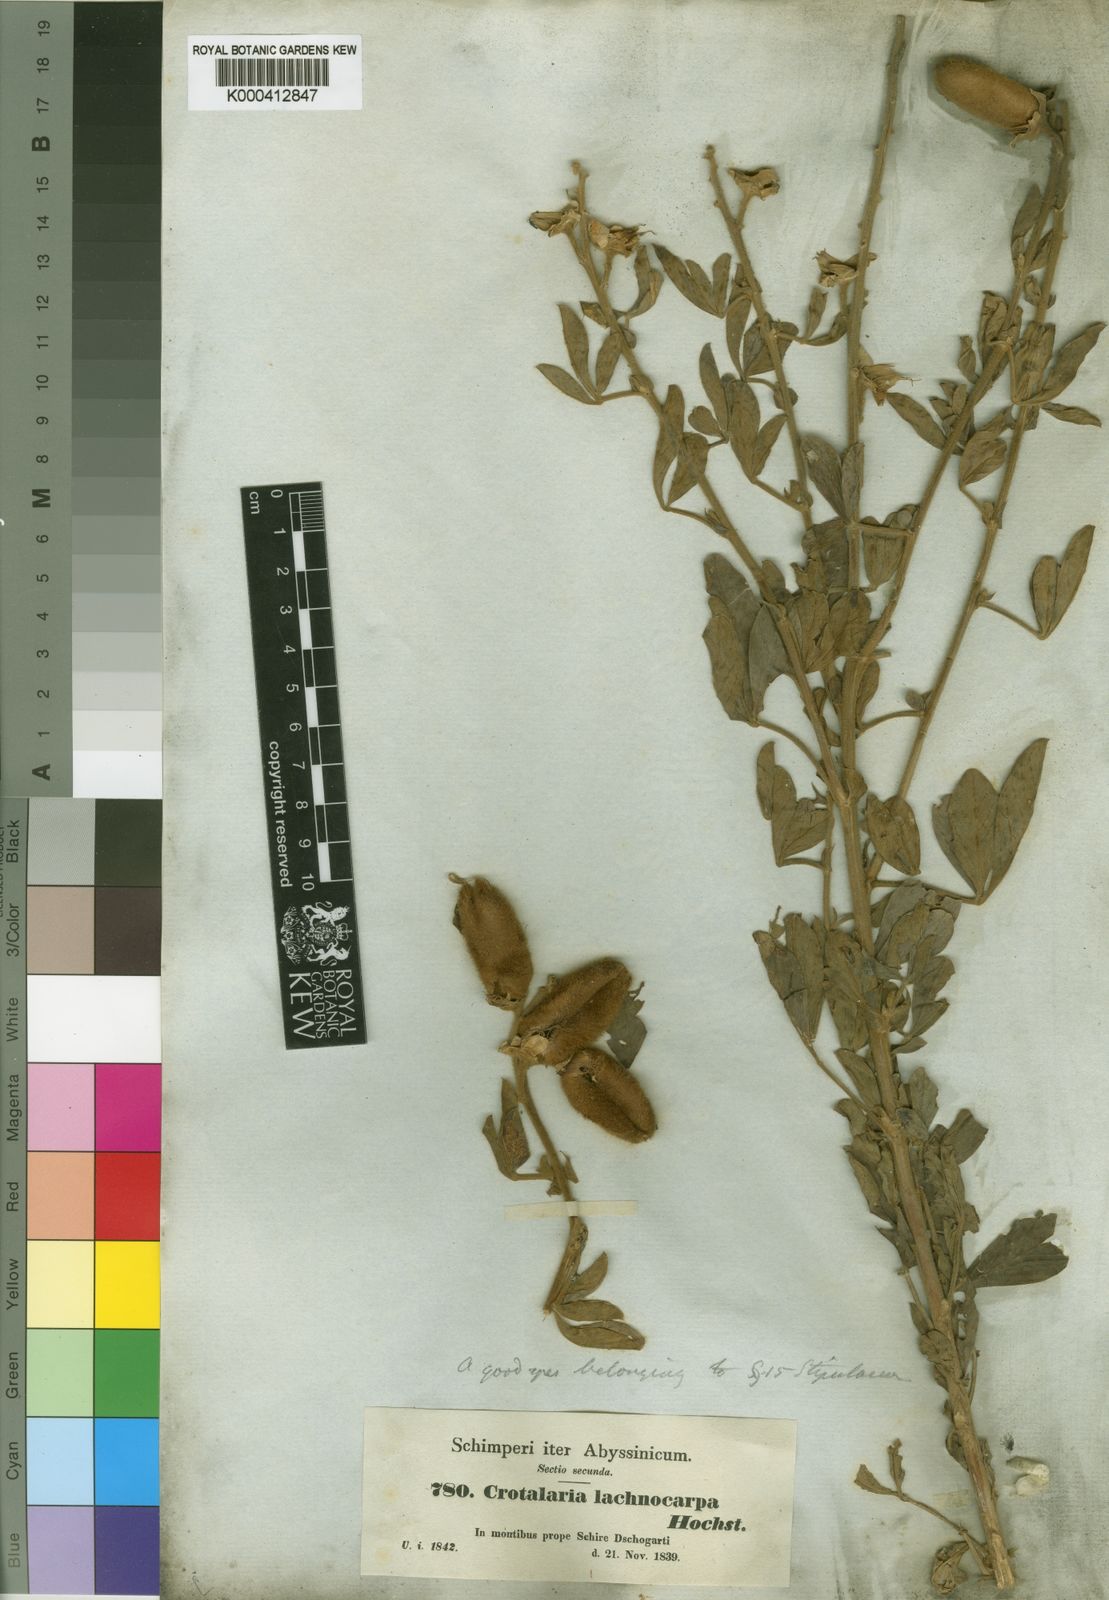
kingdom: Plantae
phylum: Tracheophyta
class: Magnoliopsida
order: Fabales
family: Fabaceae
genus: Crotalaria
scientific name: Crotalaria
